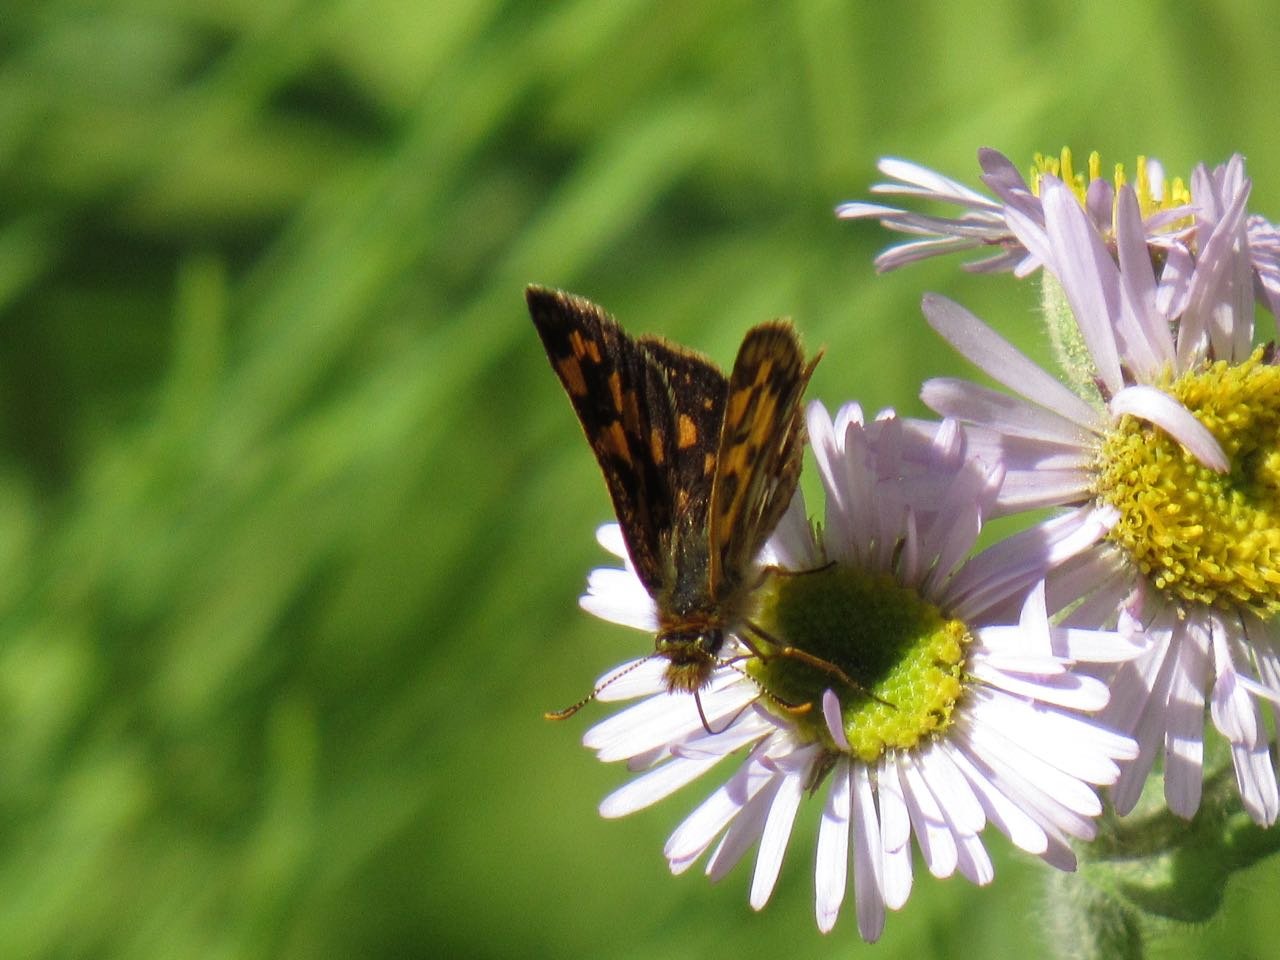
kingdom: Animalia
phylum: Arthropoda
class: Insecta
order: Lepidoptera
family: Hesperiidae
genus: Carterocephalus
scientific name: Carterocephalus palaemon
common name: Chequered Skipper
